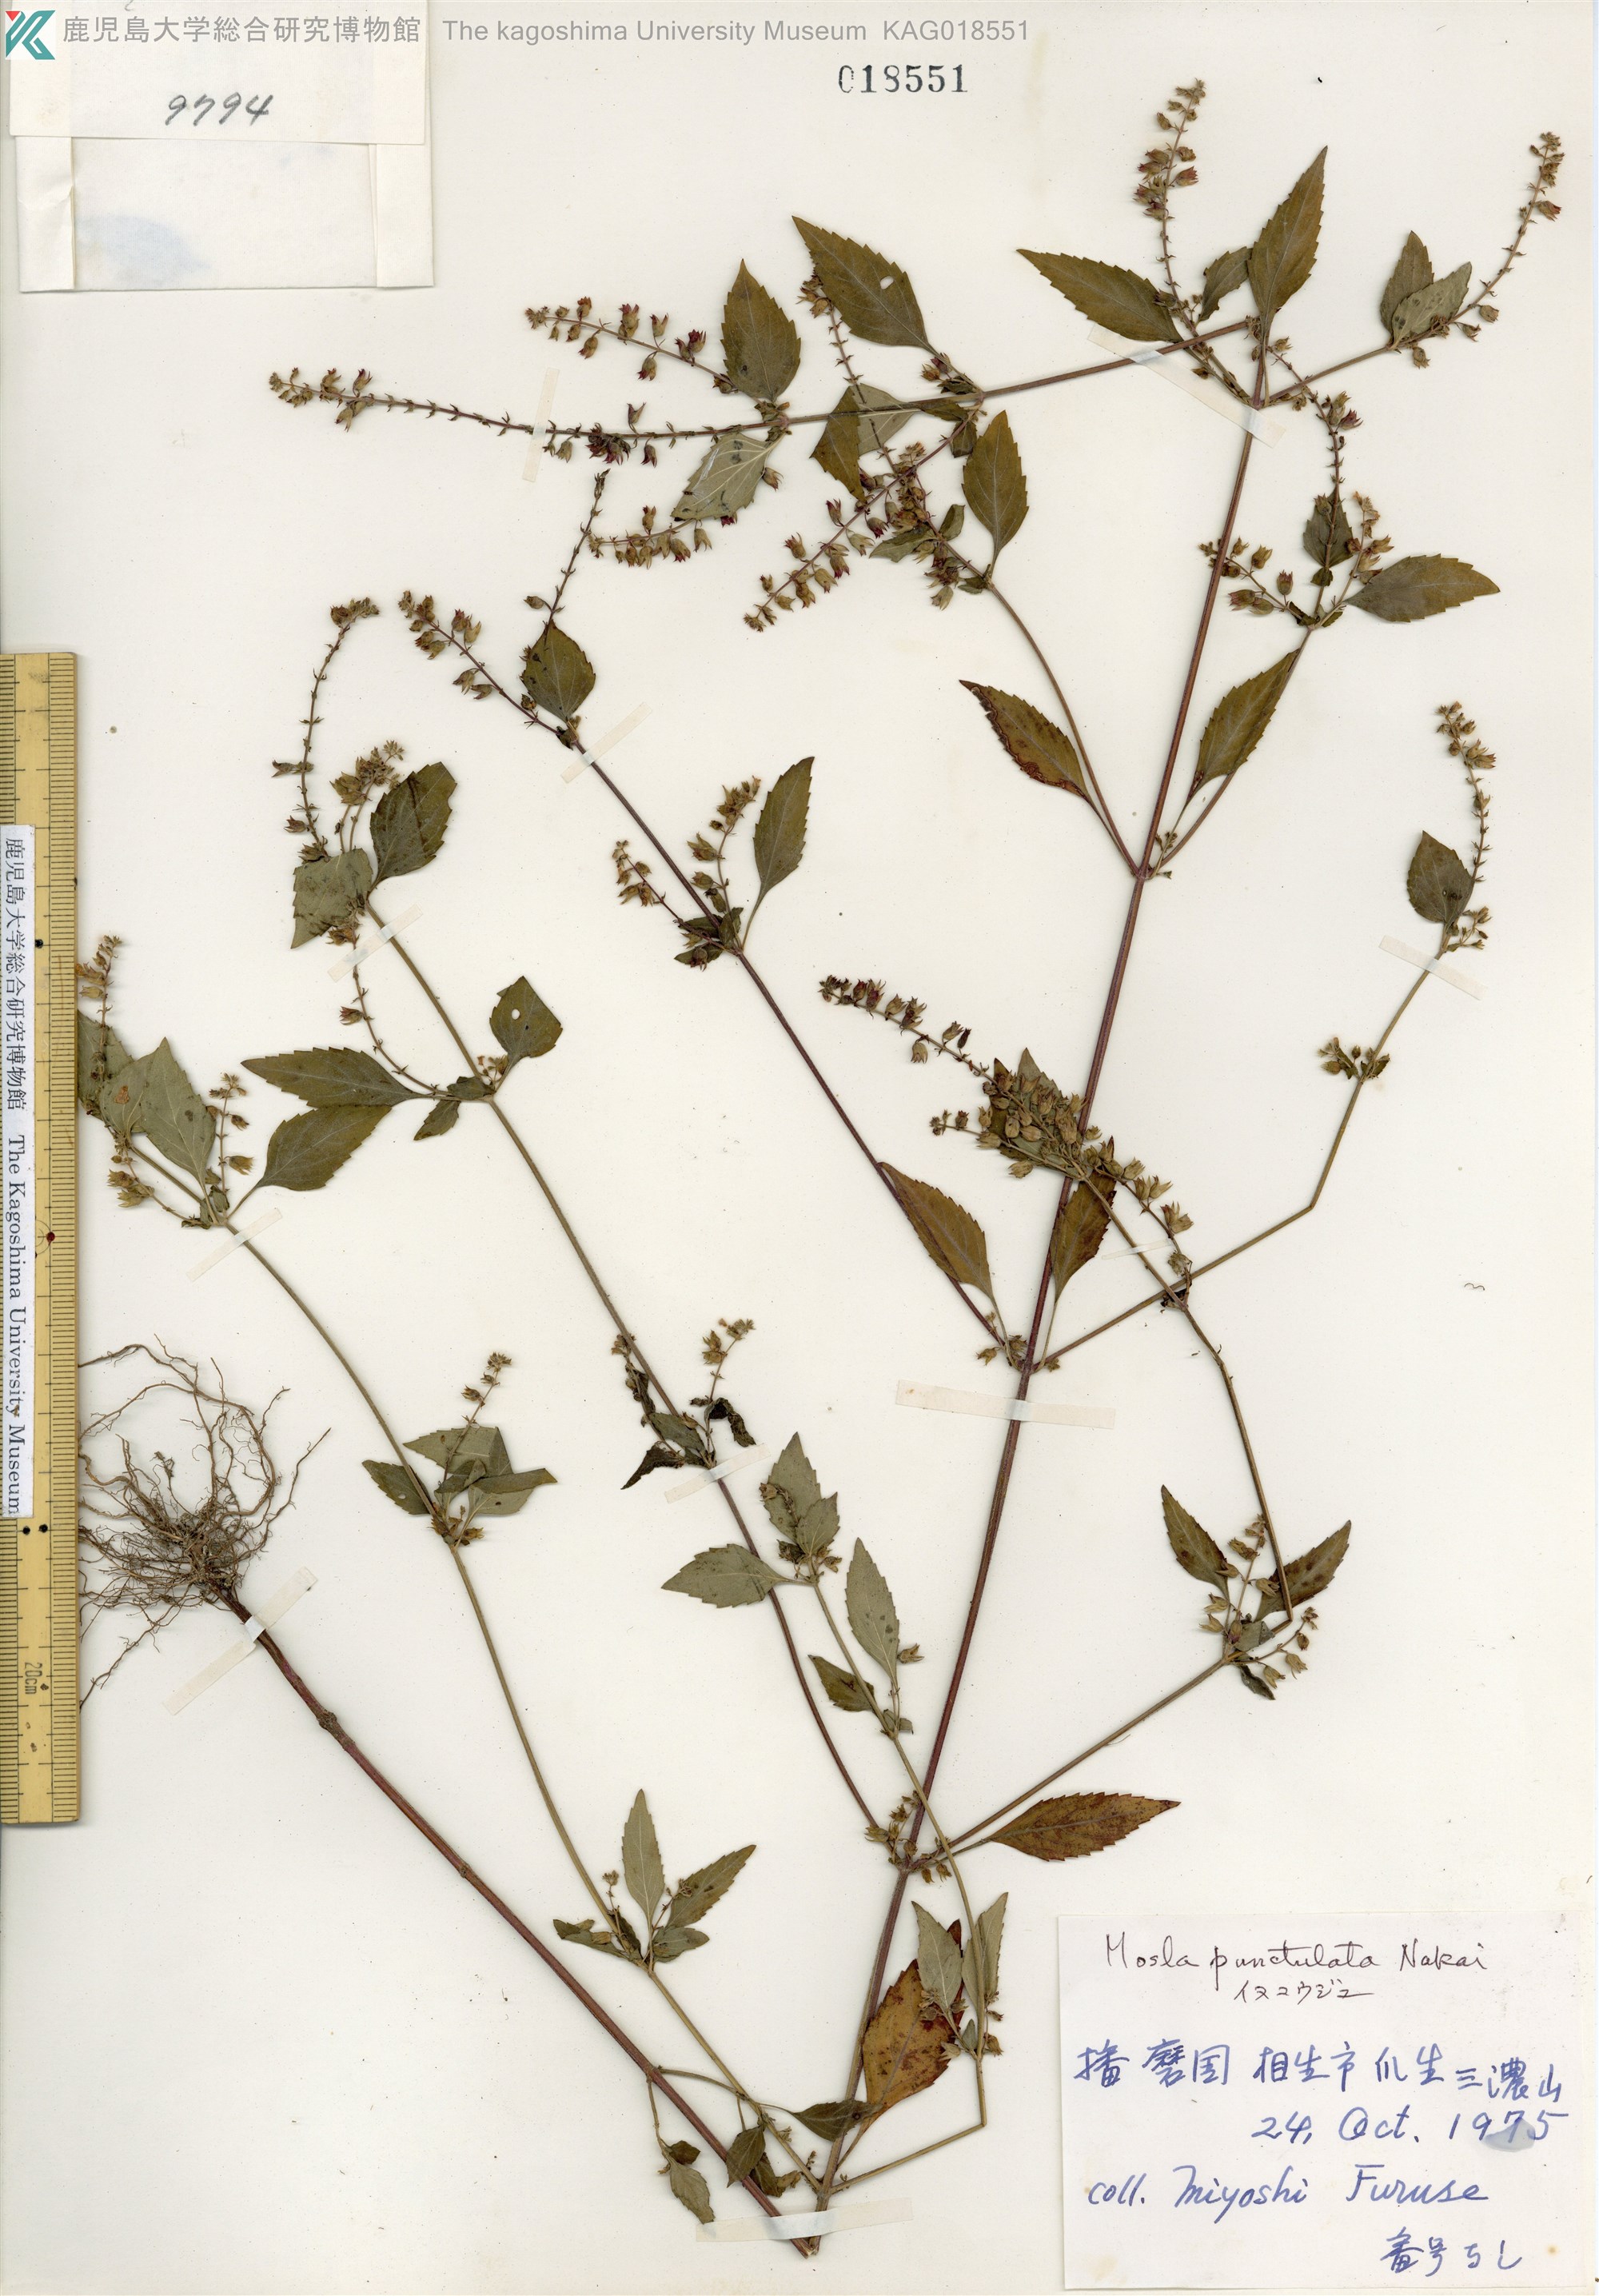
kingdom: Plantae
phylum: Tracheophyta
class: Magnoliopsida
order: Lamiales
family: Lamiaceae
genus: Mosla
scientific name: Mosla scabra
